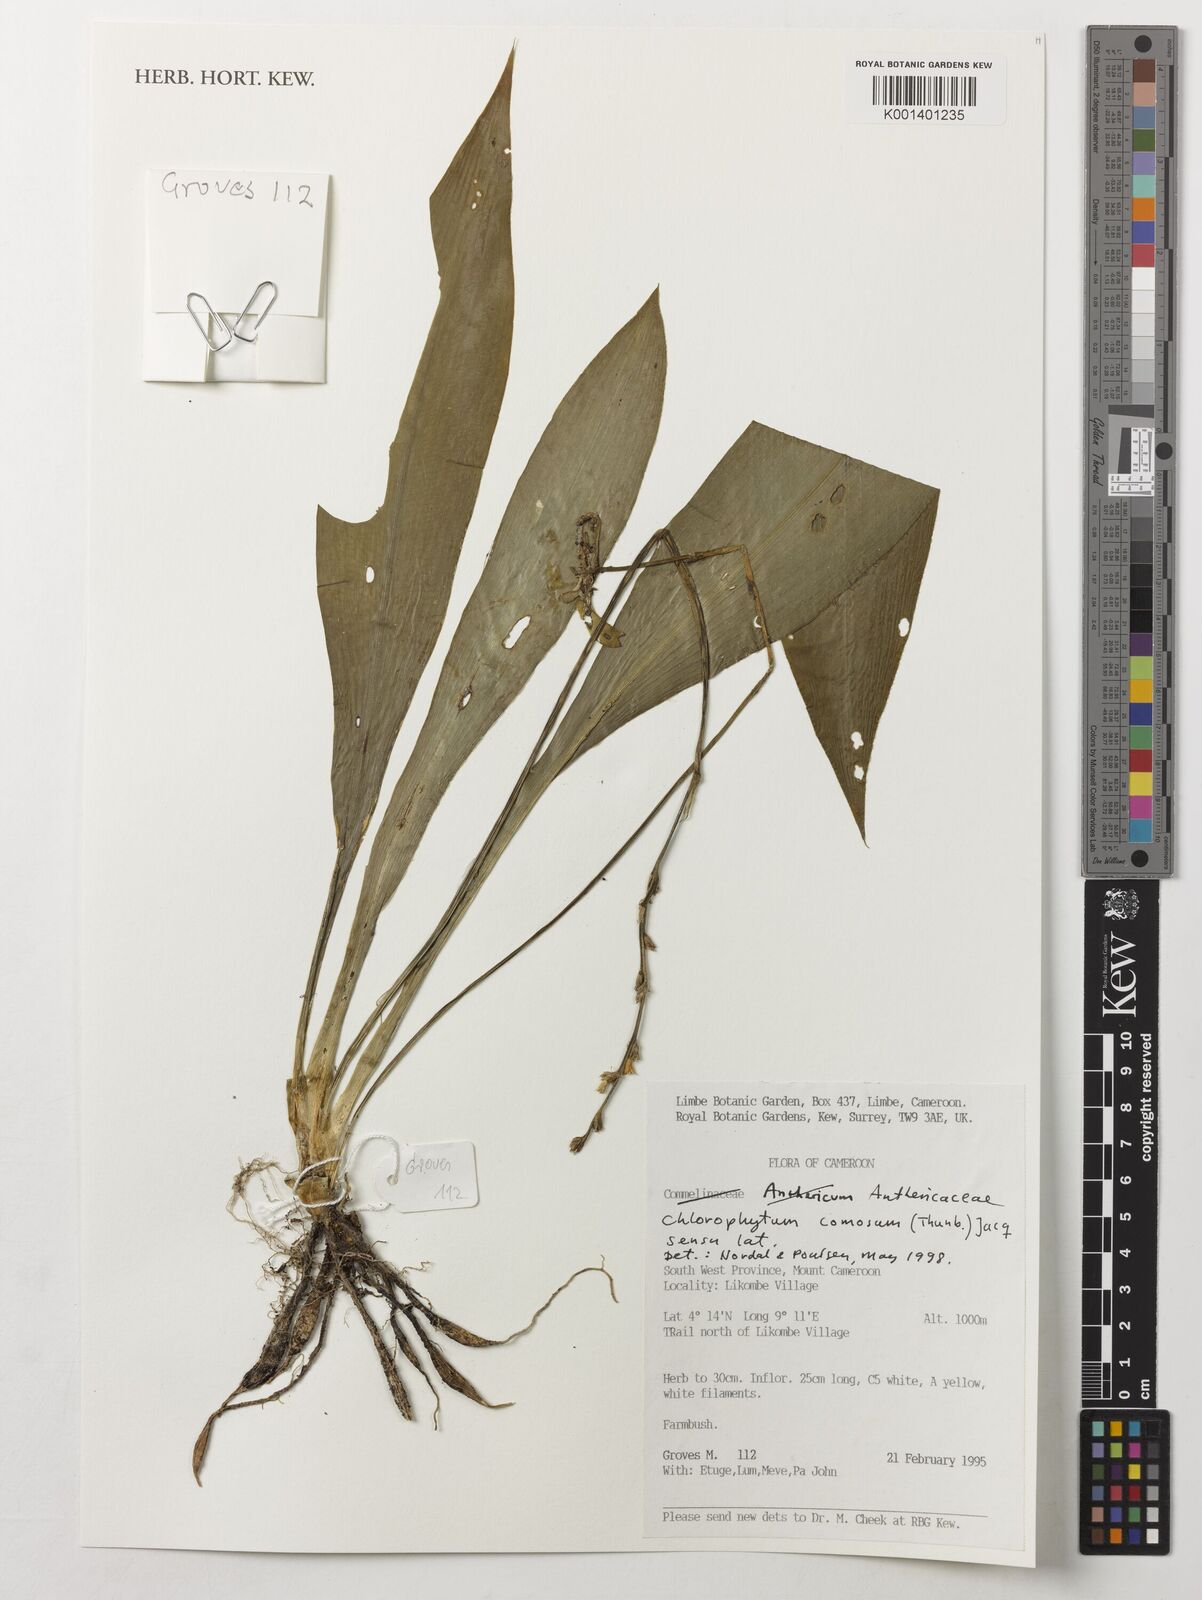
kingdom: Plantae
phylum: Tracheophyta
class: Liliopsida
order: Asparagales
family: Asparagaceae
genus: Chlorophytum
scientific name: Chlorophytum comosum
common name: Spider plant
